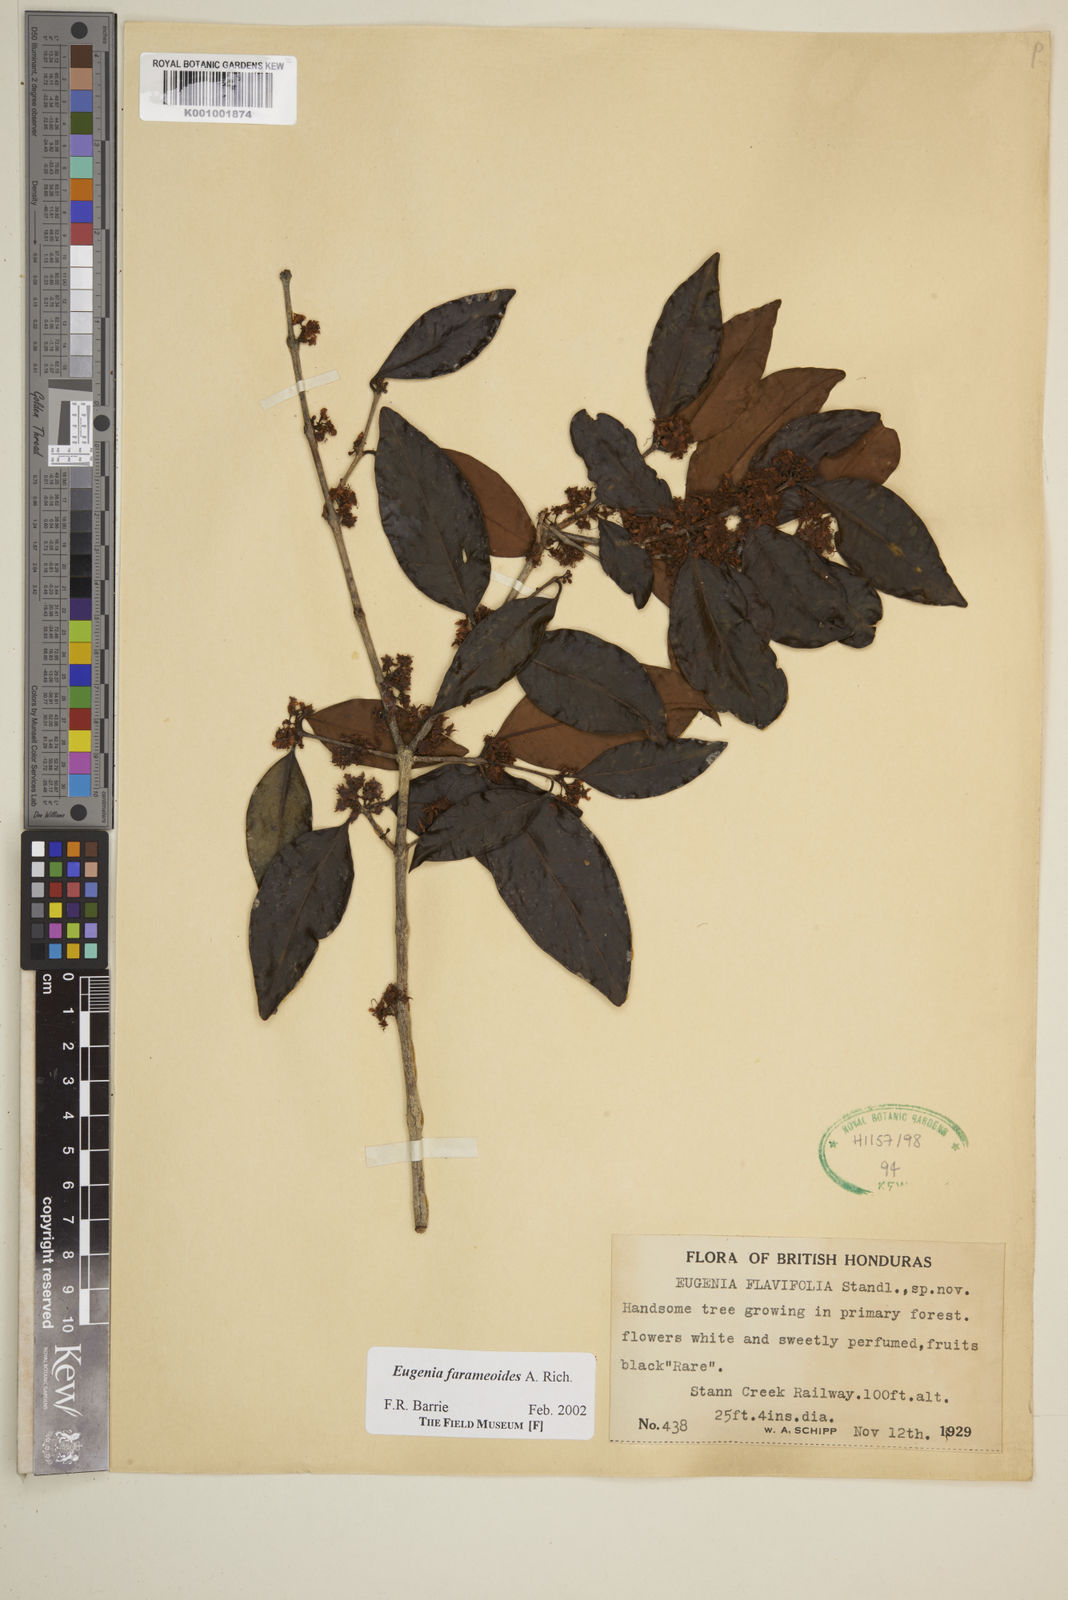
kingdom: Plantae
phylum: Tracheophyta
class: Magnoliopsida
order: Myrtales
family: Myrtaceae
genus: Eugenia
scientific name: Eugenia farameoides
